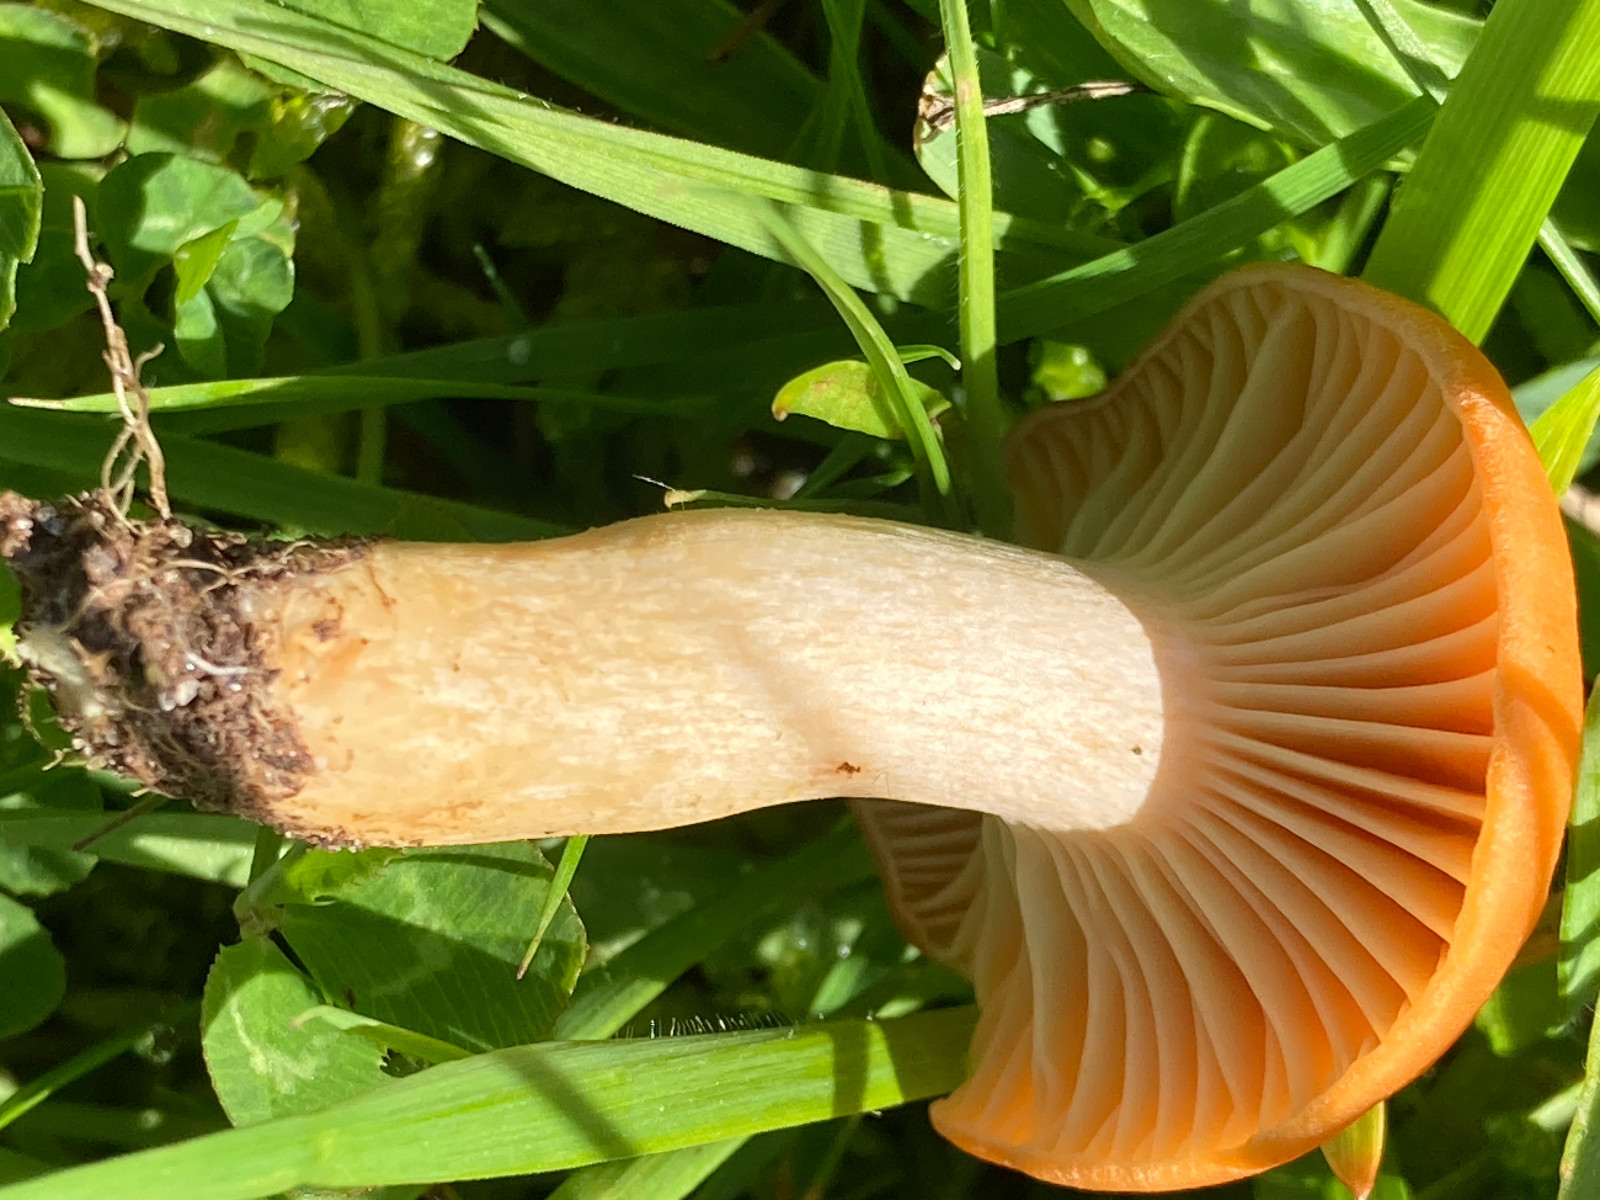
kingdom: Fungi
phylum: Basidiomycota
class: Agaricomycetes
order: Agaricales
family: Hygrophoraceae
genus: Cuphophyllus
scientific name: Cuphophyllus pratensis
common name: eng-vokshat
